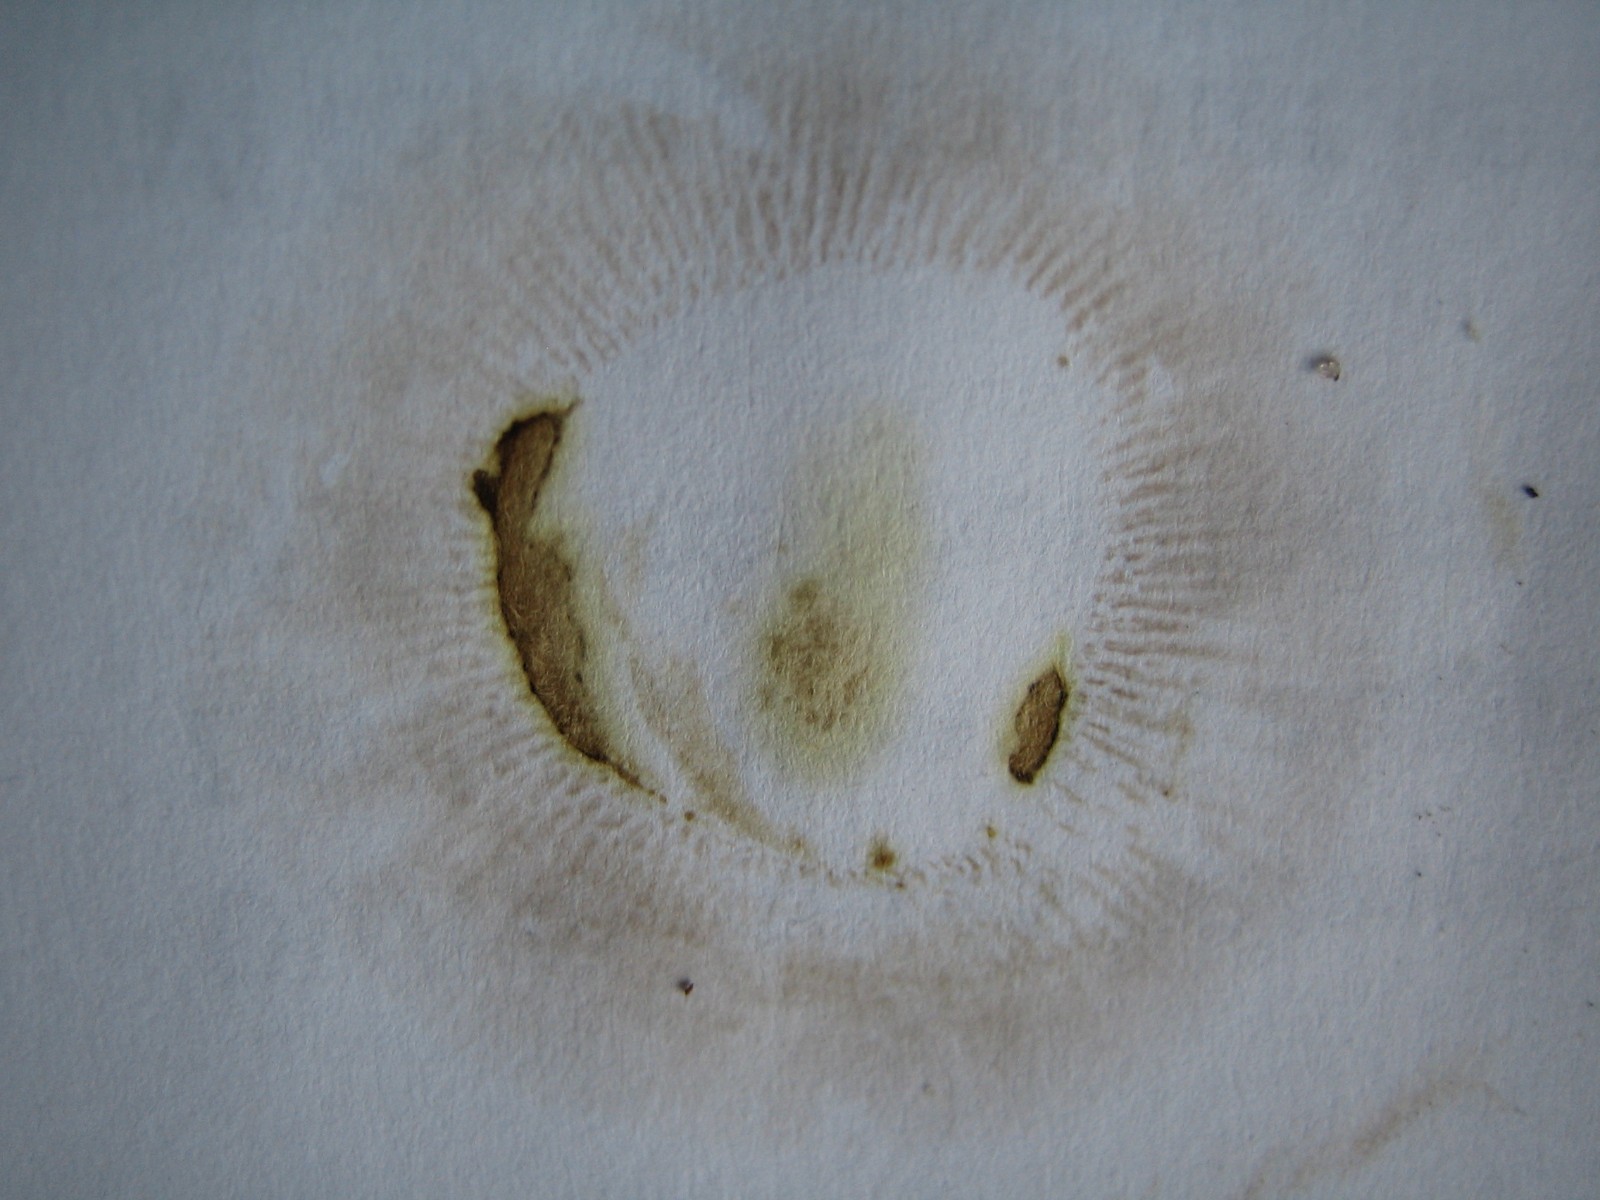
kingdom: Fungi
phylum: Basidiomycota
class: Agaricomycetes
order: Boletales
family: Paxillaceae
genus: Paxillus
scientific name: Paxillus involutus
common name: almindelig netbladhat
